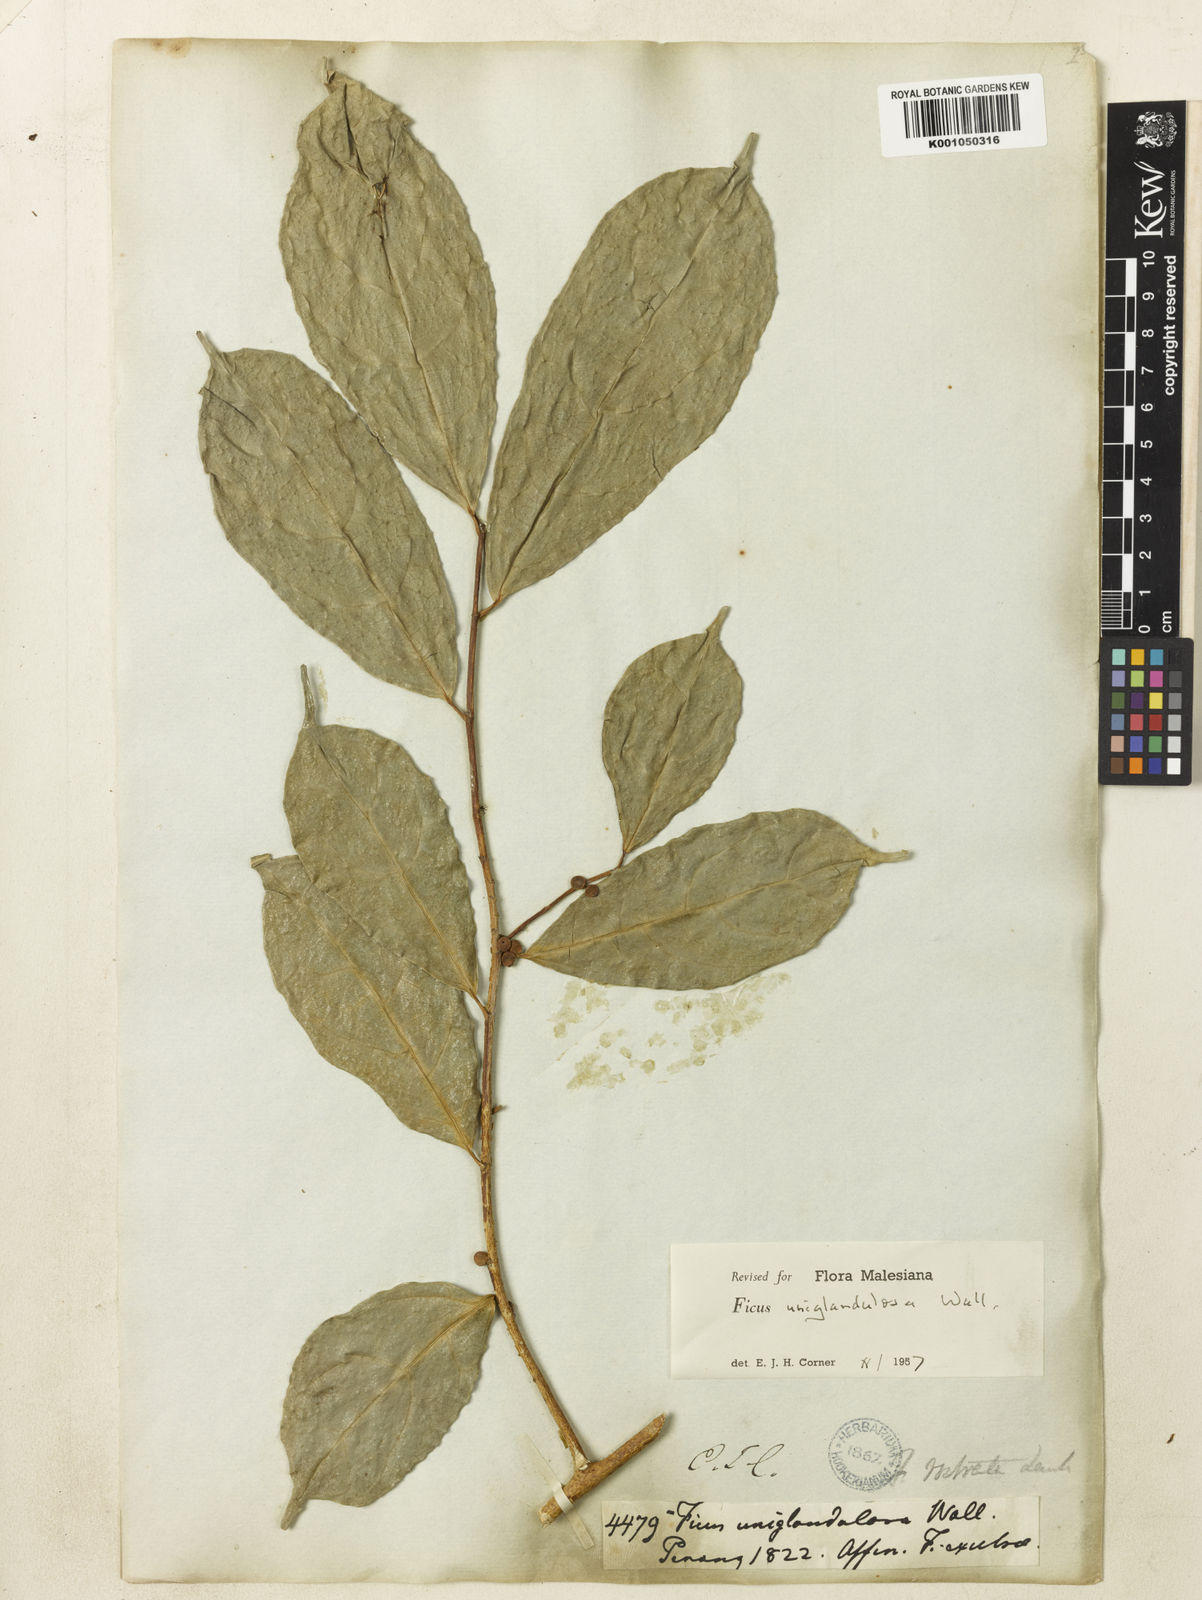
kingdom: Plantae
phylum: Tracheophyta
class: Magnoliopsida
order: Rosales
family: Moraceae
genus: Ficus
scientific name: Ficus uniglandulosa
